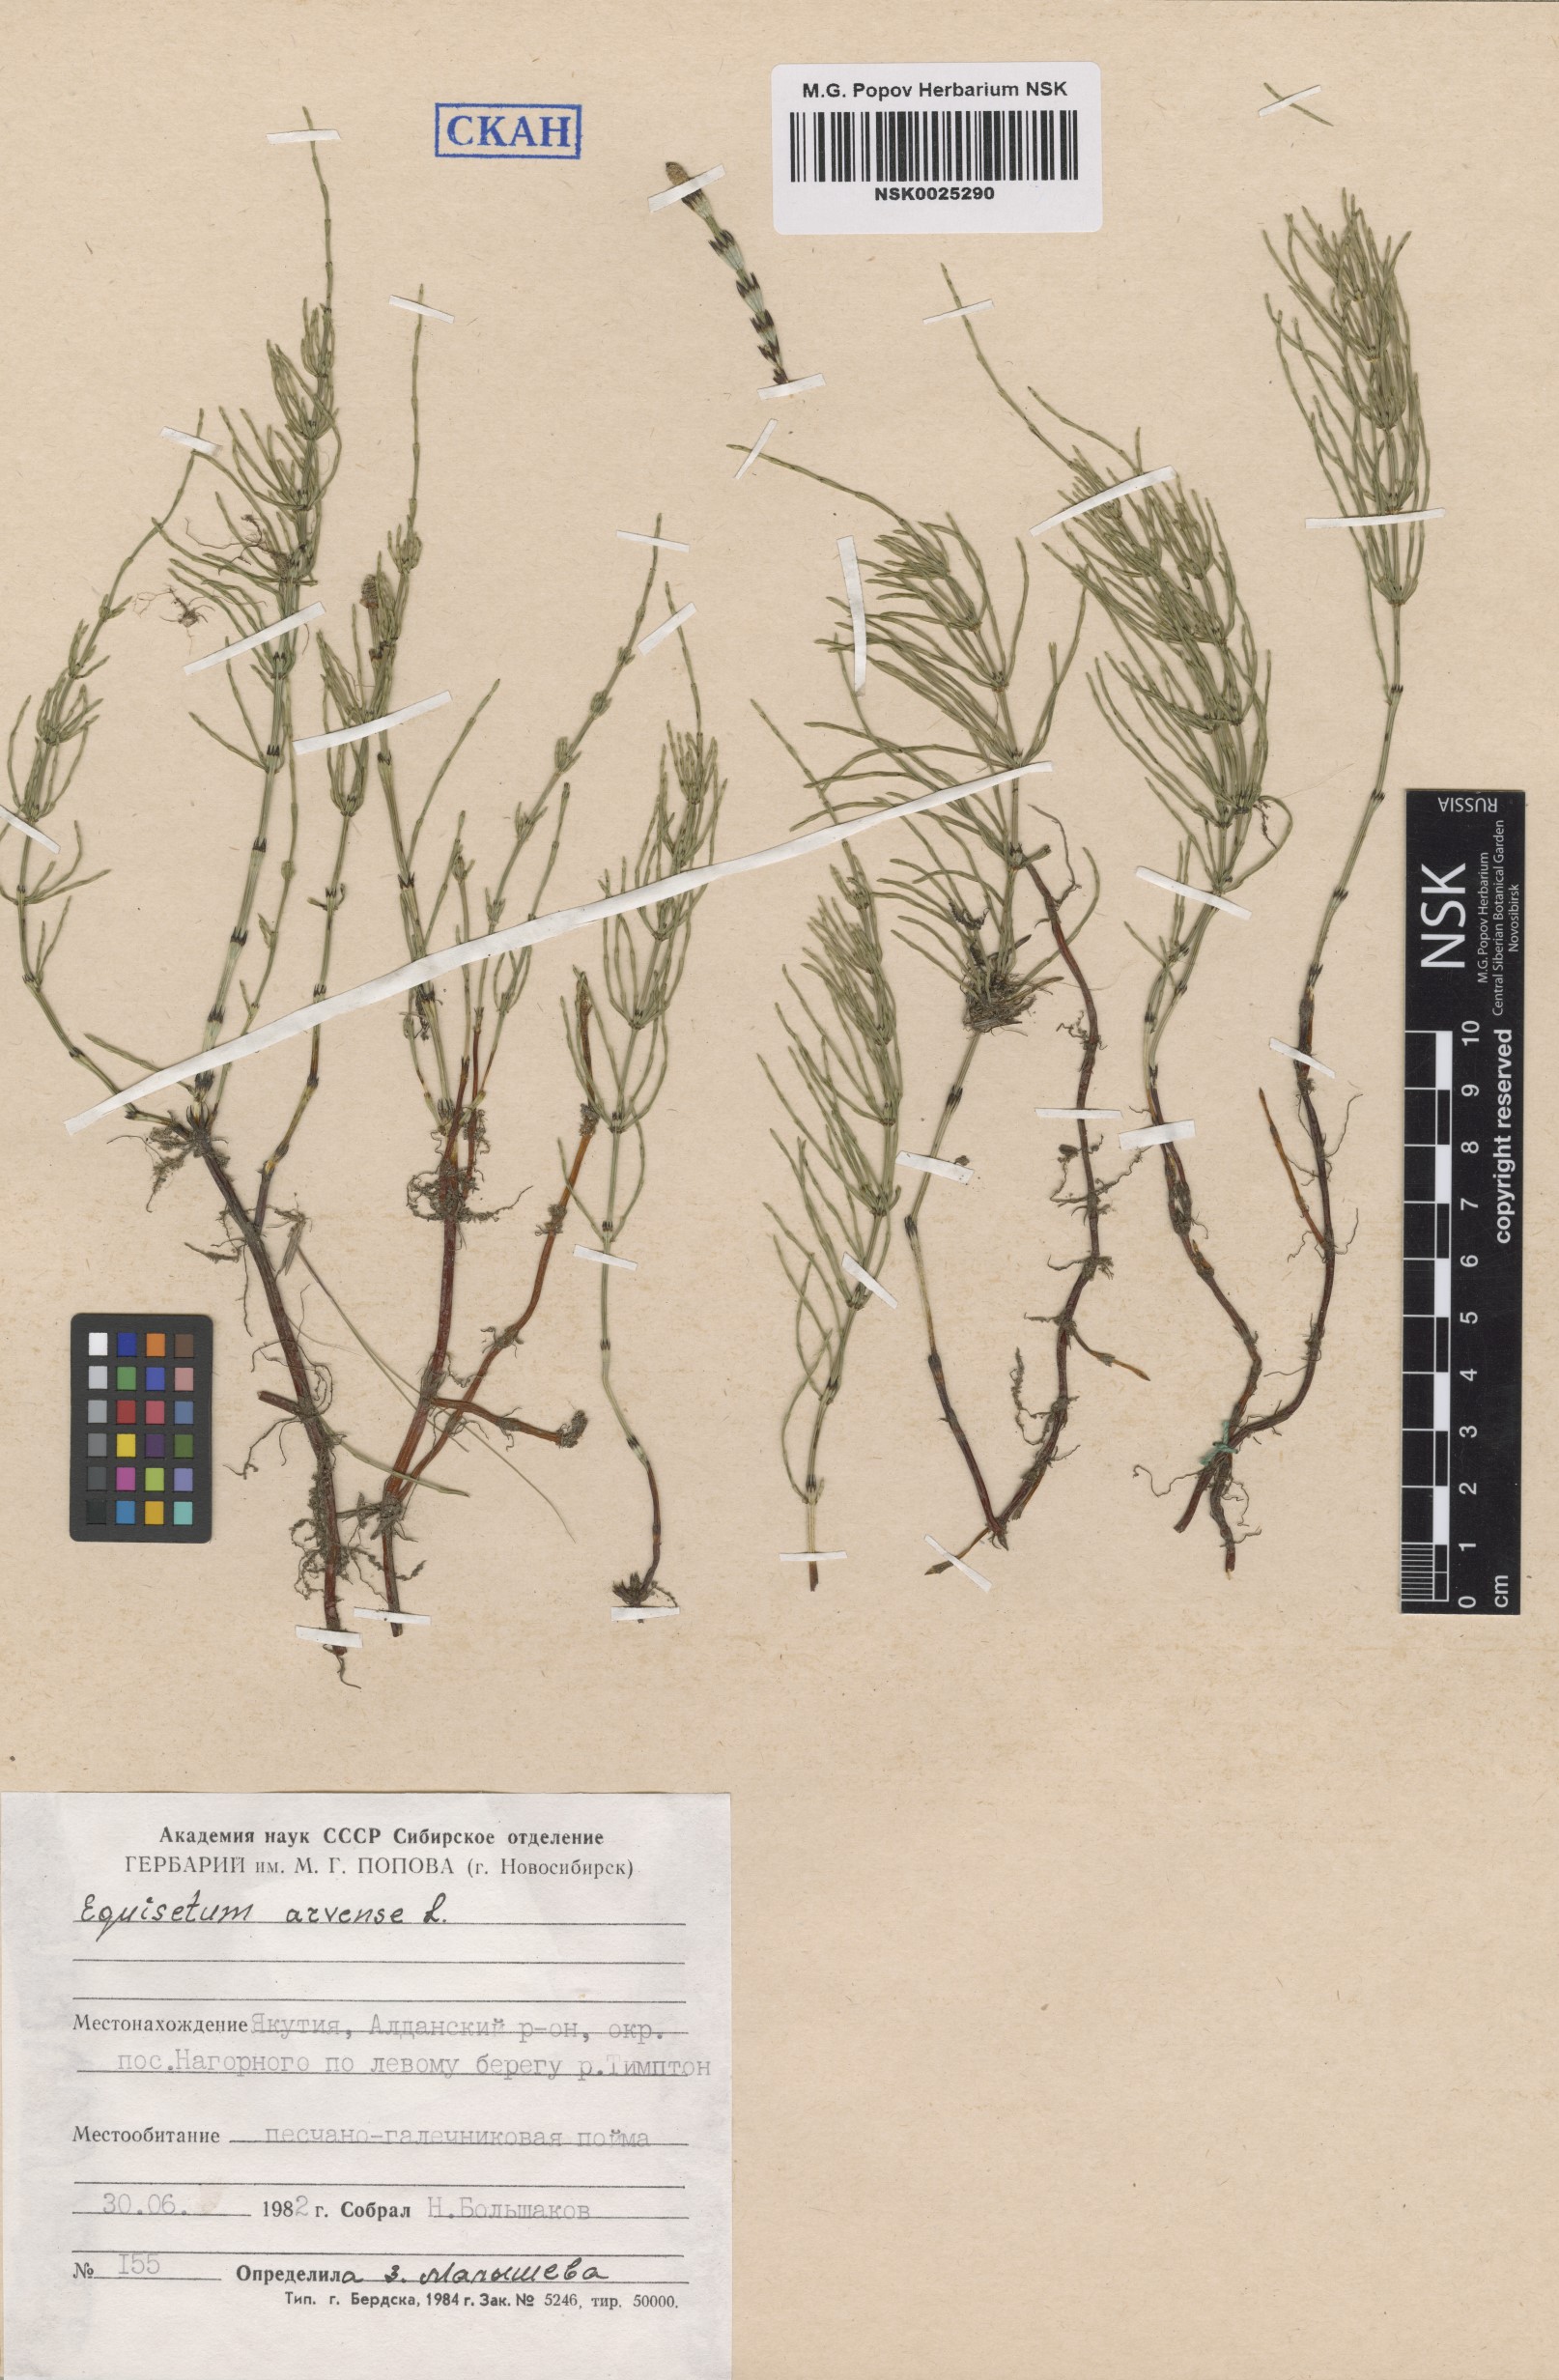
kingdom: Plantae
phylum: Tracheophyta
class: Polypodiopsida
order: Equisetales
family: Equisetaceae
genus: Equisetum
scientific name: Equisetum arvense
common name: Field horsetail
